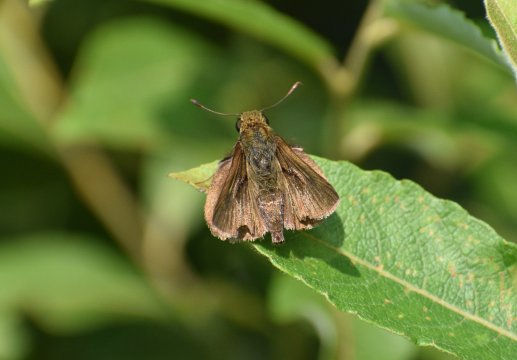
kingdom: Animalia
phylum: Arthropoda
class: Insecta
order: Lepidoptera
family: Hesperiidae
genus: Polites
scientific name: Polites themistocles
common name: Tawny-edged Skipper
